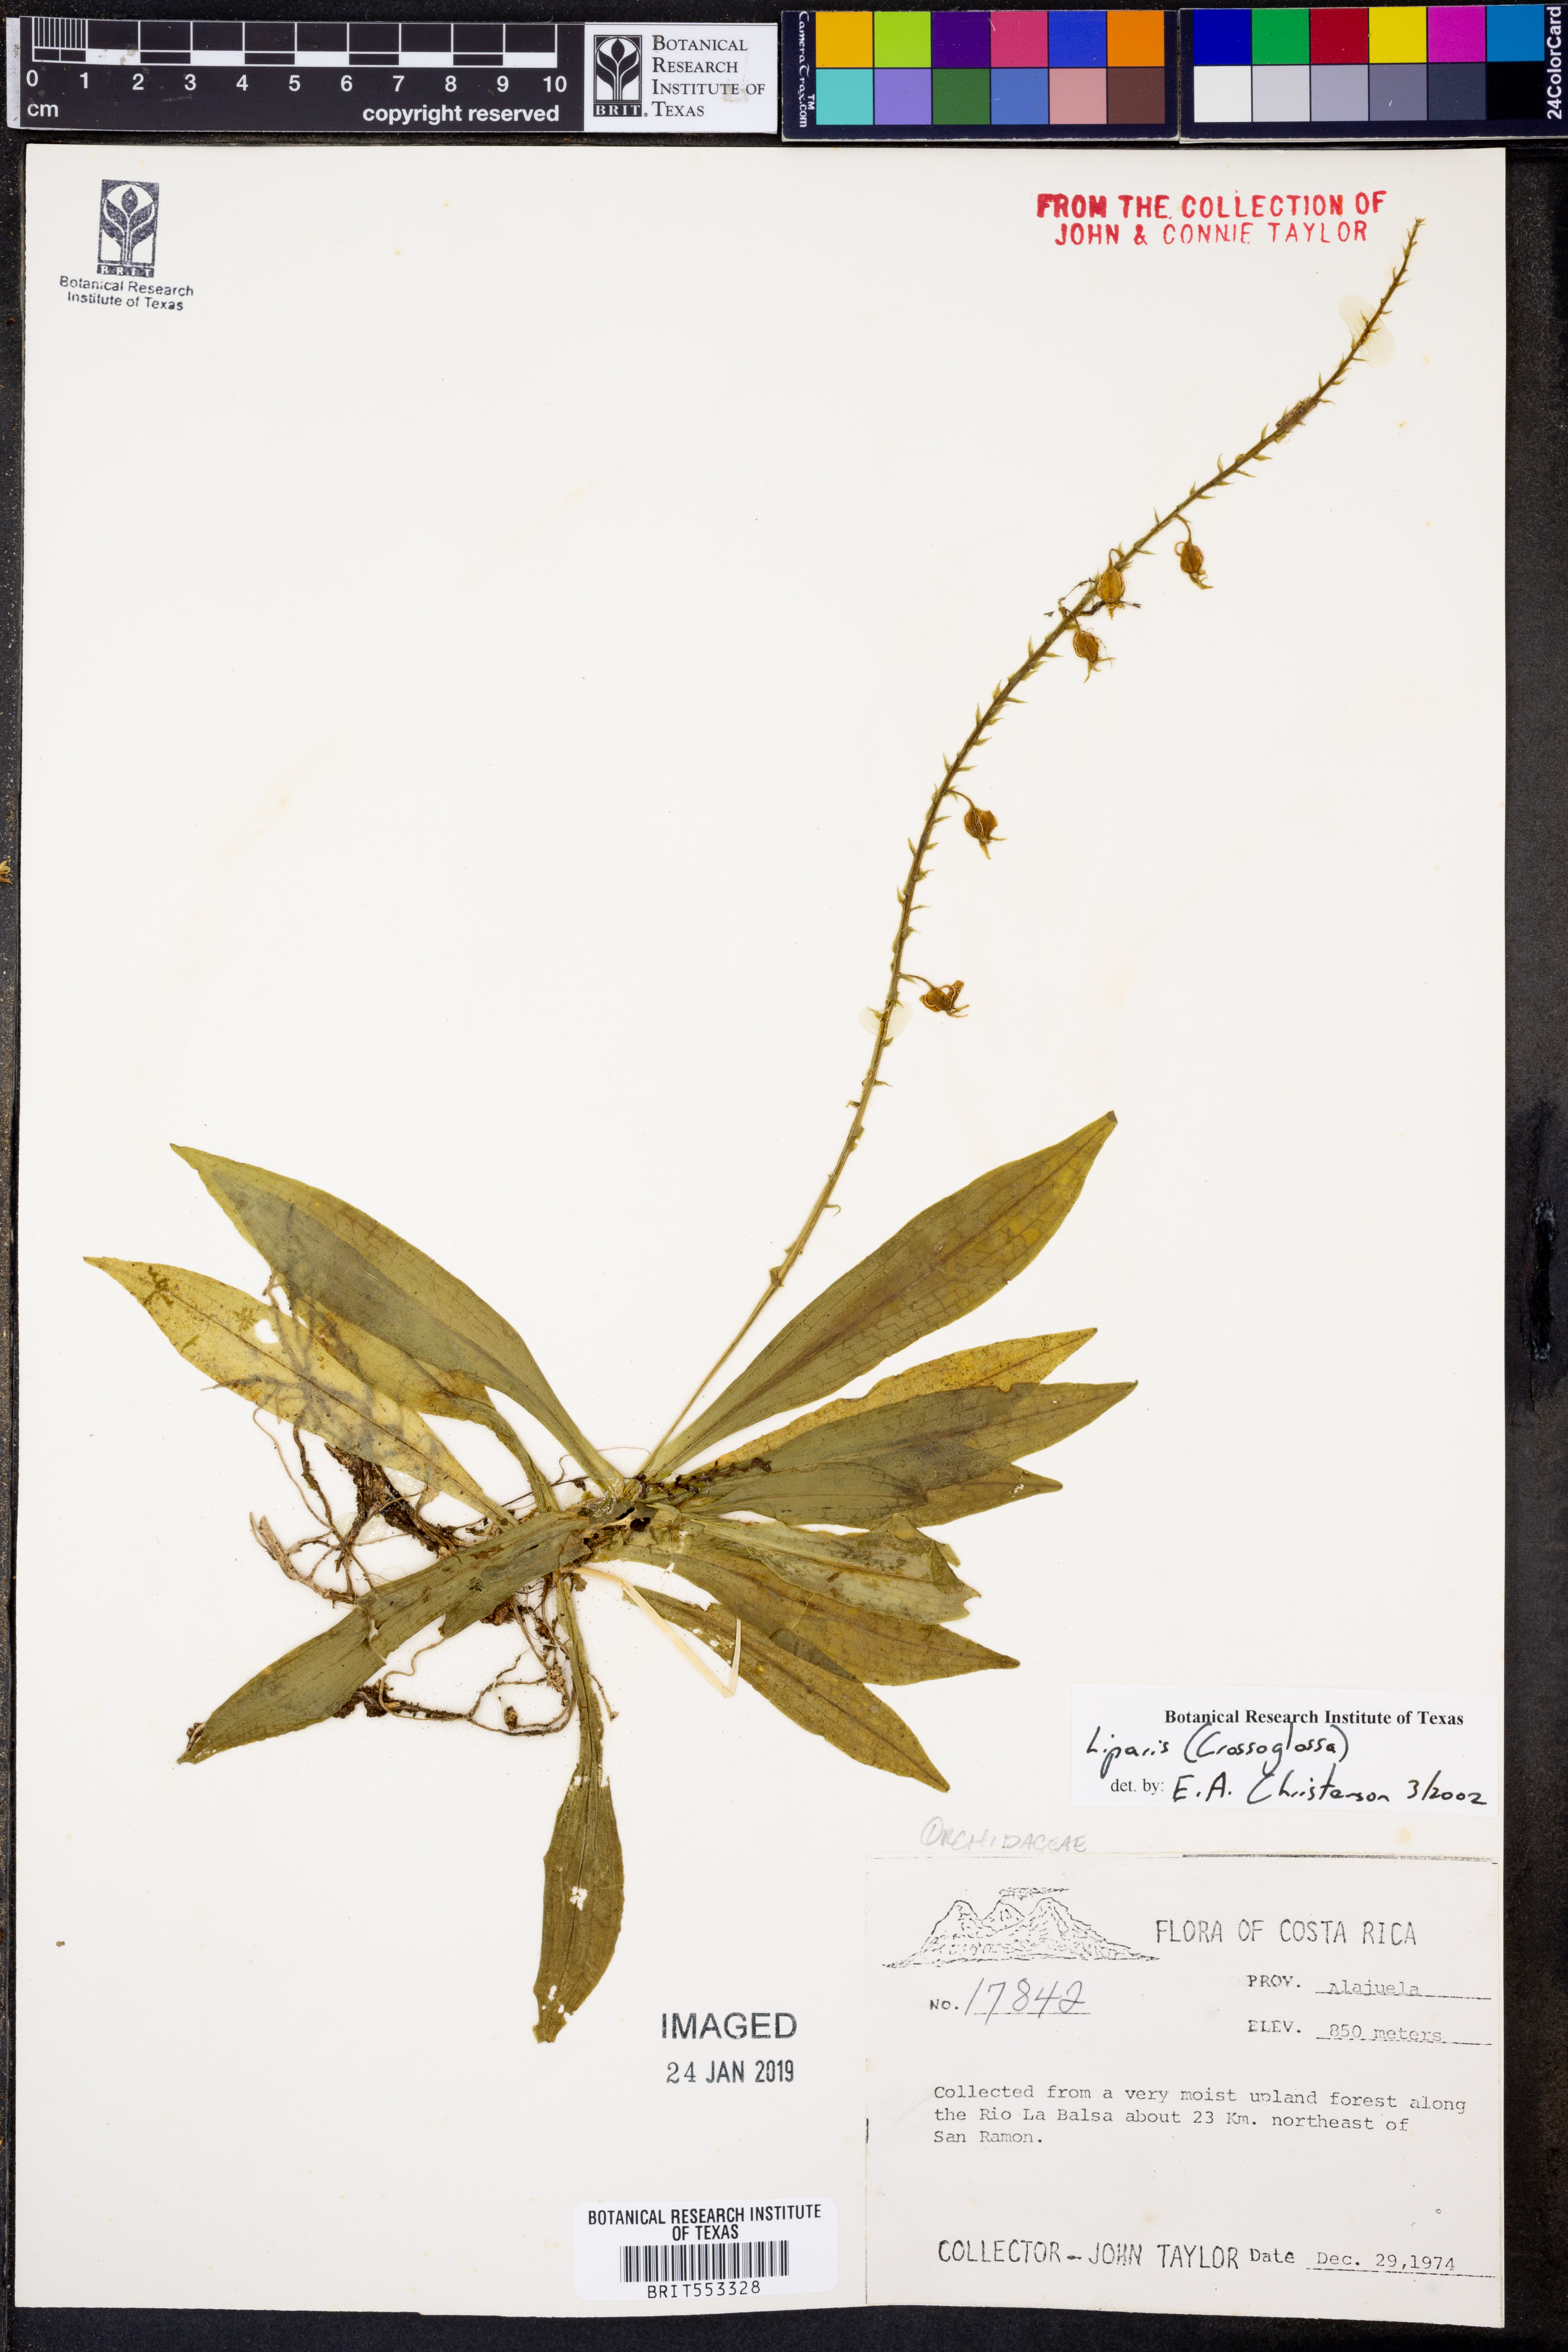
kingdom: Plantae
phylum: Tracheophyta
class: Liliopsida
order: Asparagales
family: Orchidaceae
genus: Liparis
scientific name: Liparis
